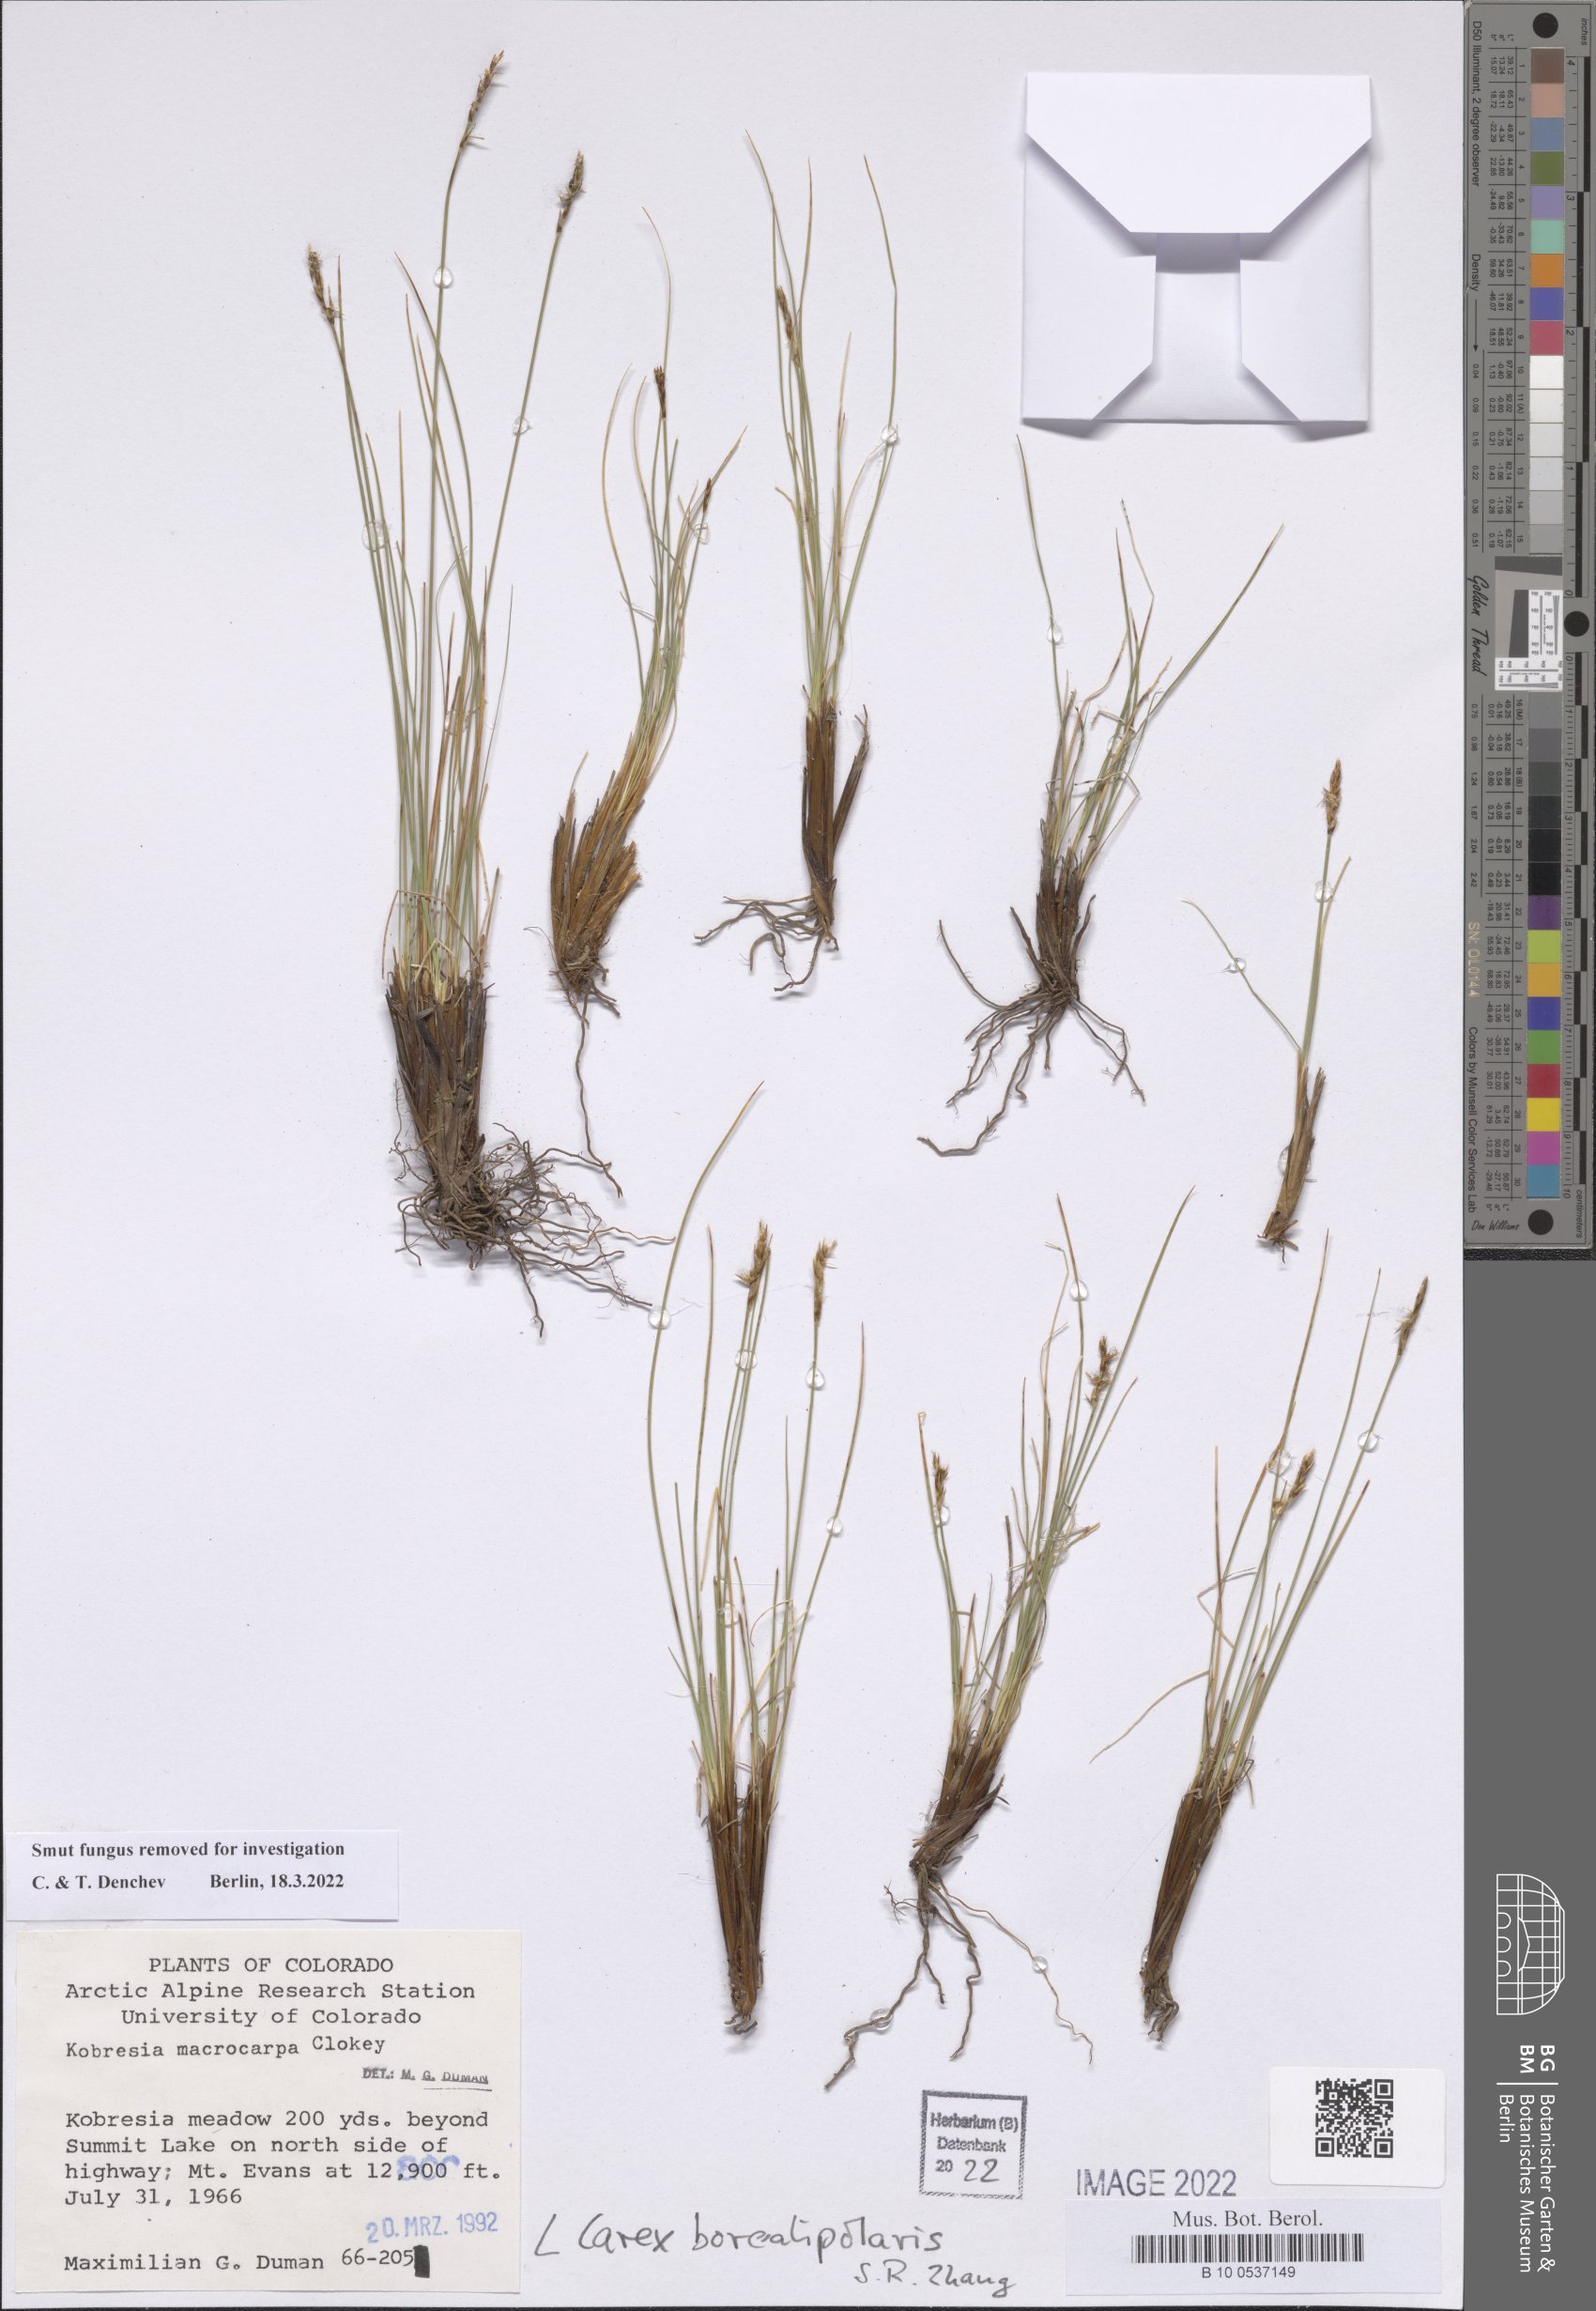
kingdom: Plantae
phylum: Tracheophyta
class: Liliopsida
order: Poales
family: Cyperaceae
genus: Carex
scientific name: Carex borealipolaris
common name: Siberian bog sedge
